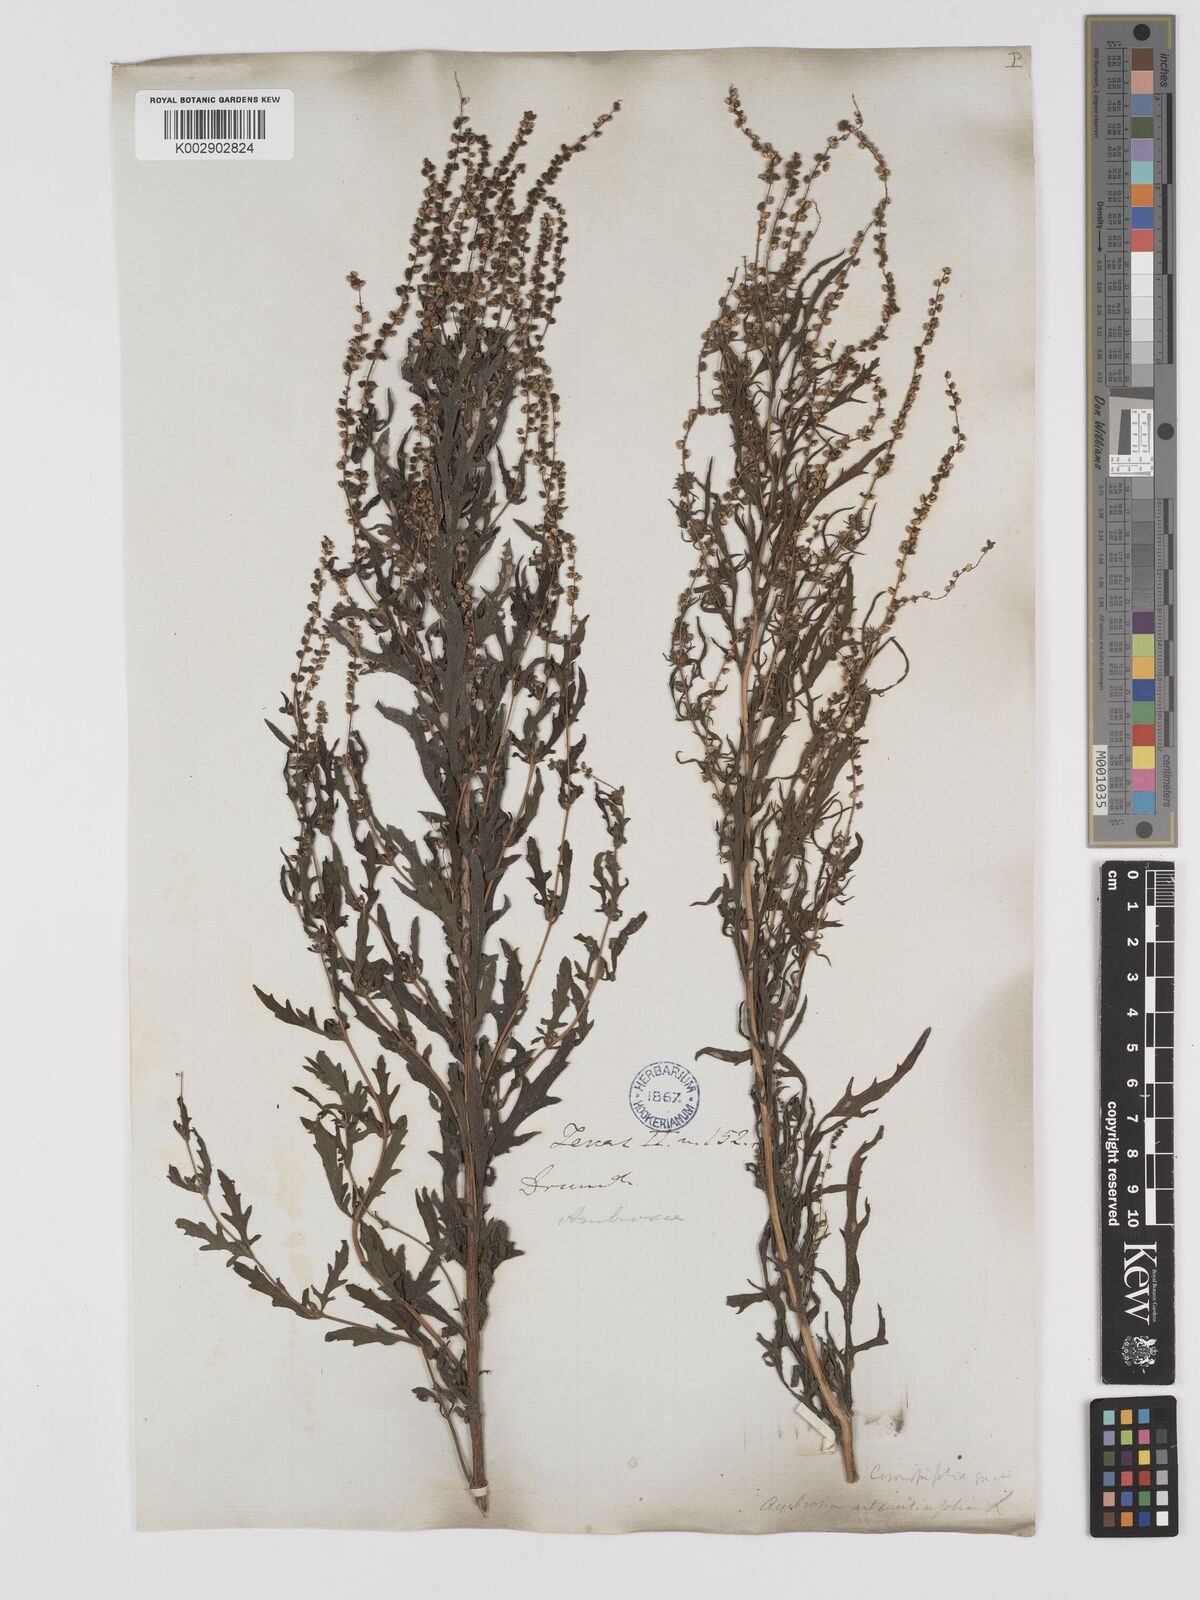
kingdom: Plantae
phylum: Tracheophyta
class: Magnoliopsida
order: Asterales
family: Asteraceae
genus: Ambrosia
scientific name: Ambrosia artemisiifolia
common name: Annual ragweed
